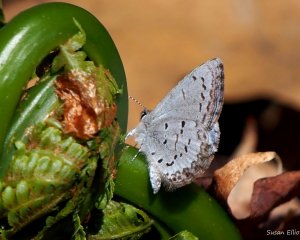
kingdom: Animalia
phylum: Arthropoda
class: Insecta
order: Lepidoptera
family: Lycaenidae
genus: Celastrina
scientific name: Celastrina lucia
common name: Northern Spring Azure
